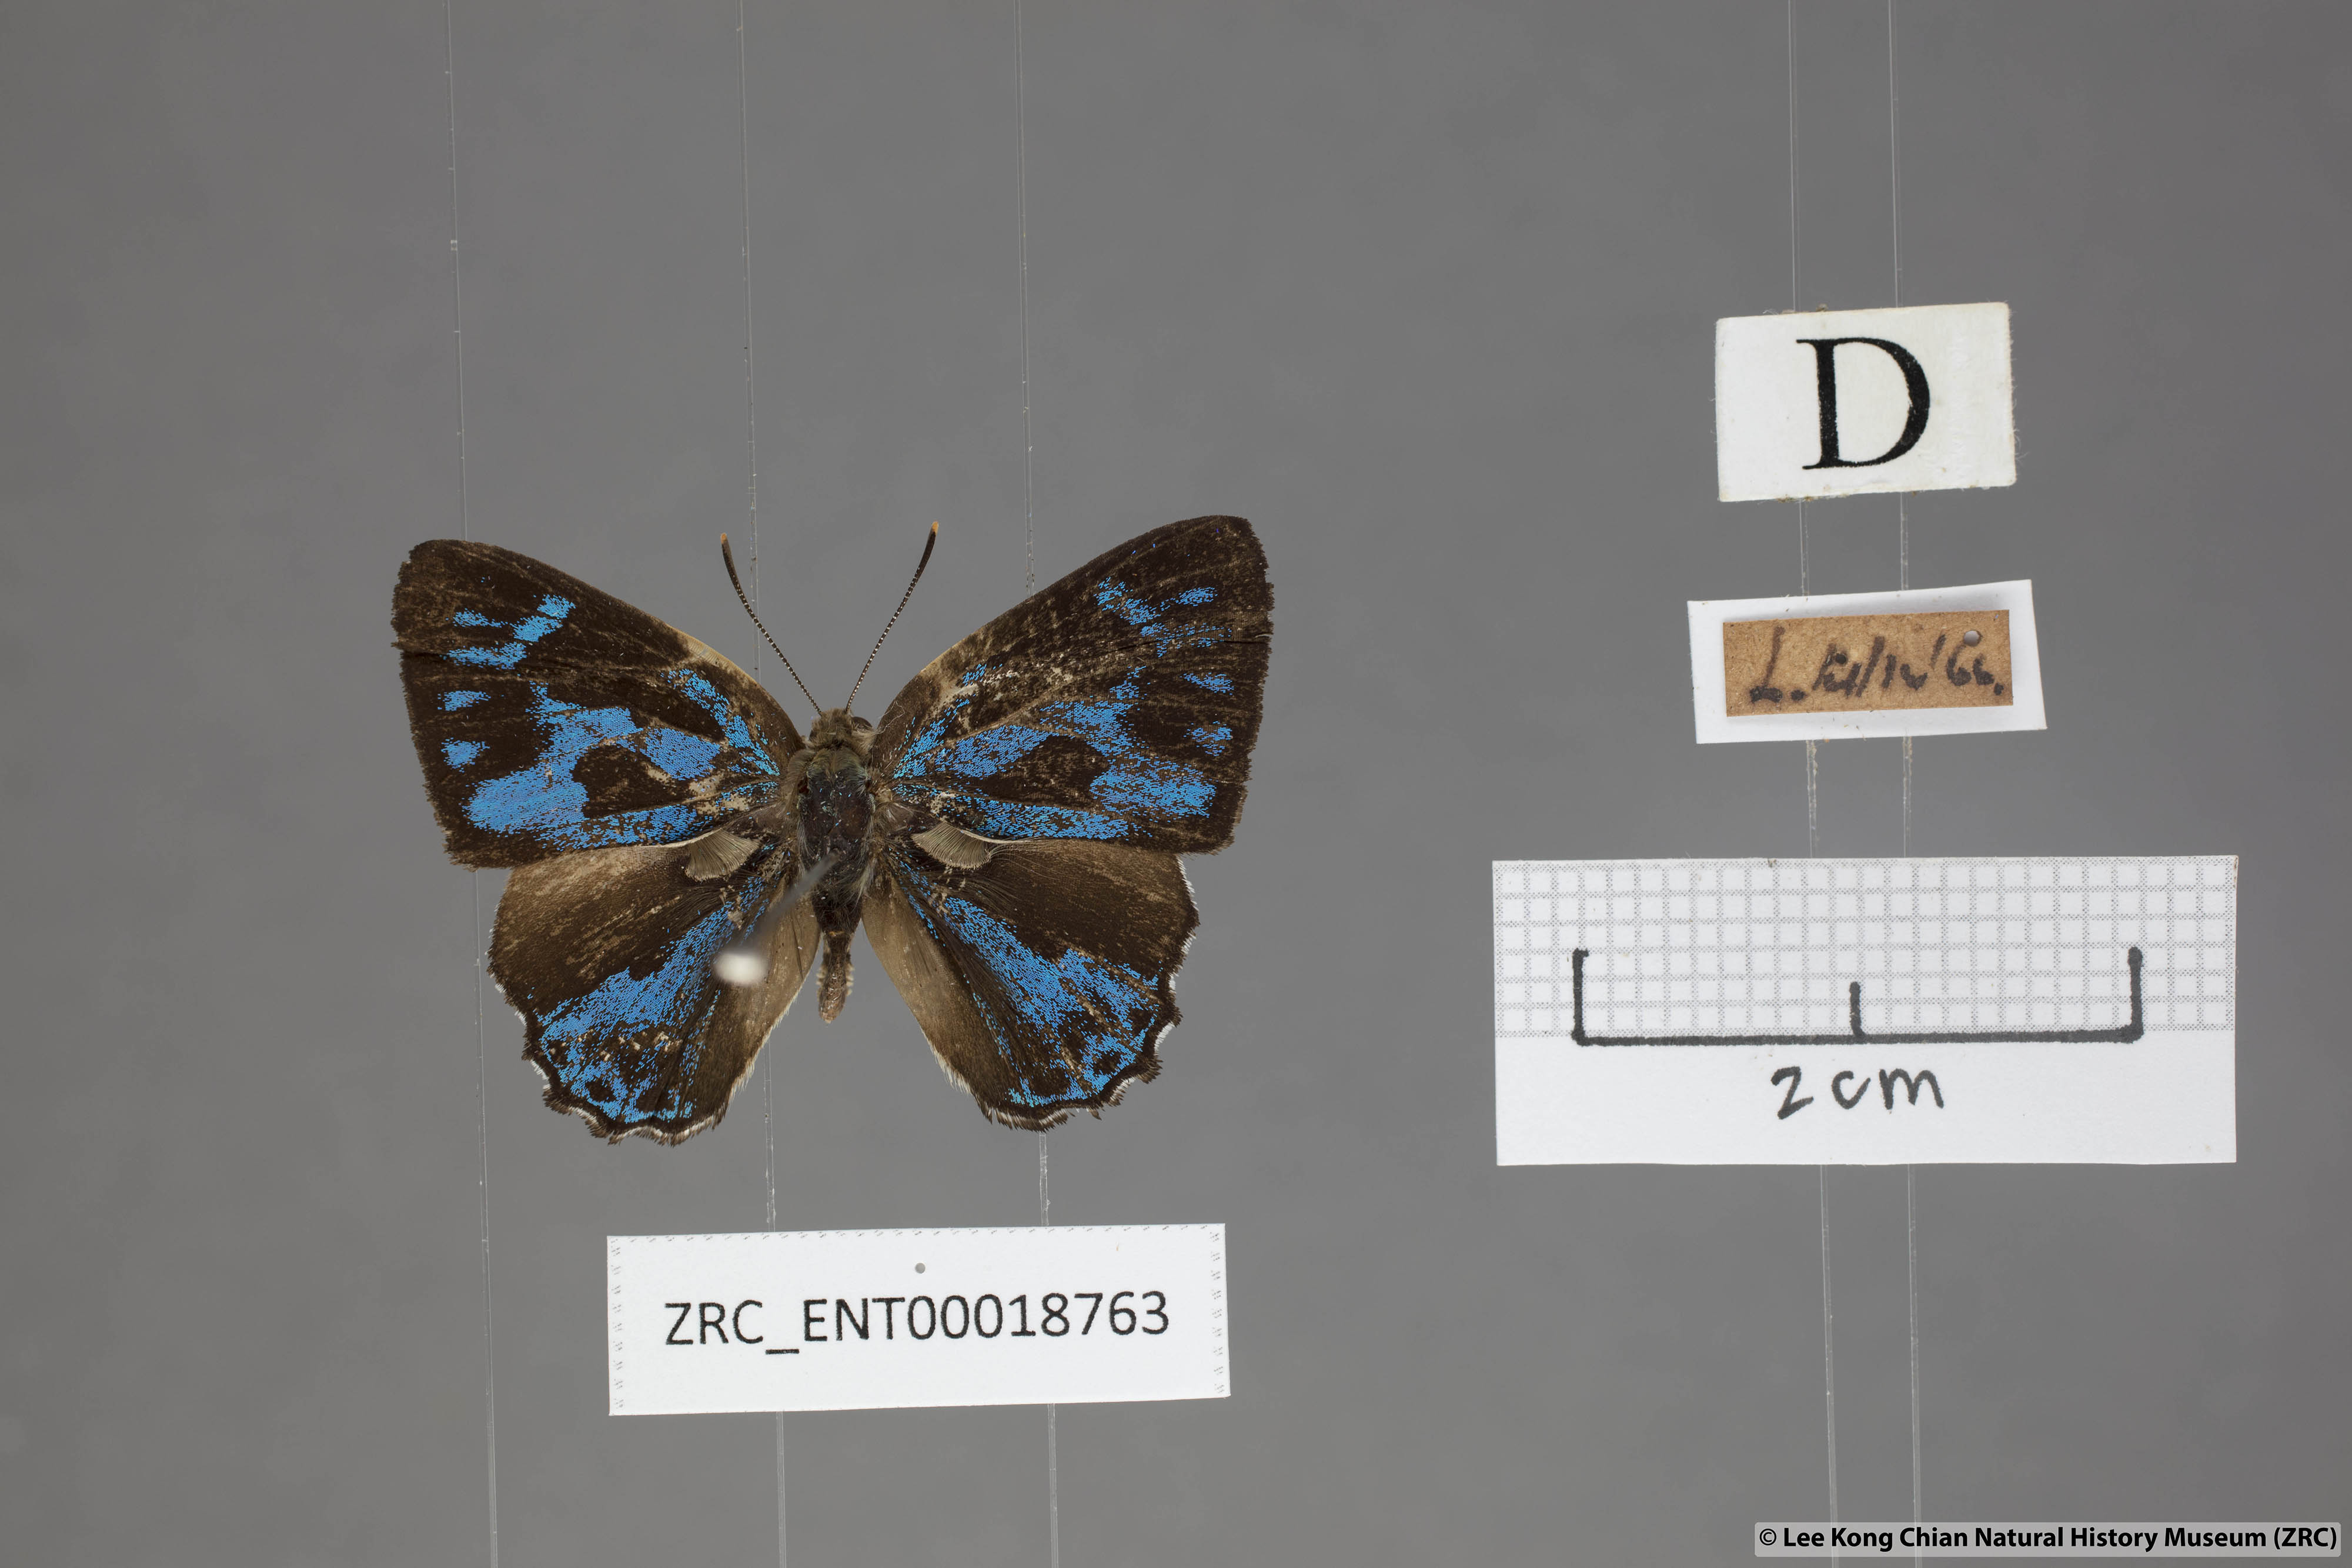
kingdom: Animalia
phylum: Arthropoda
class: Insecta
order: Lepidoptera
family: Lycaenidae
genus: Poritia
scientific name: Poritia erycinoides
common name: Blue gem
